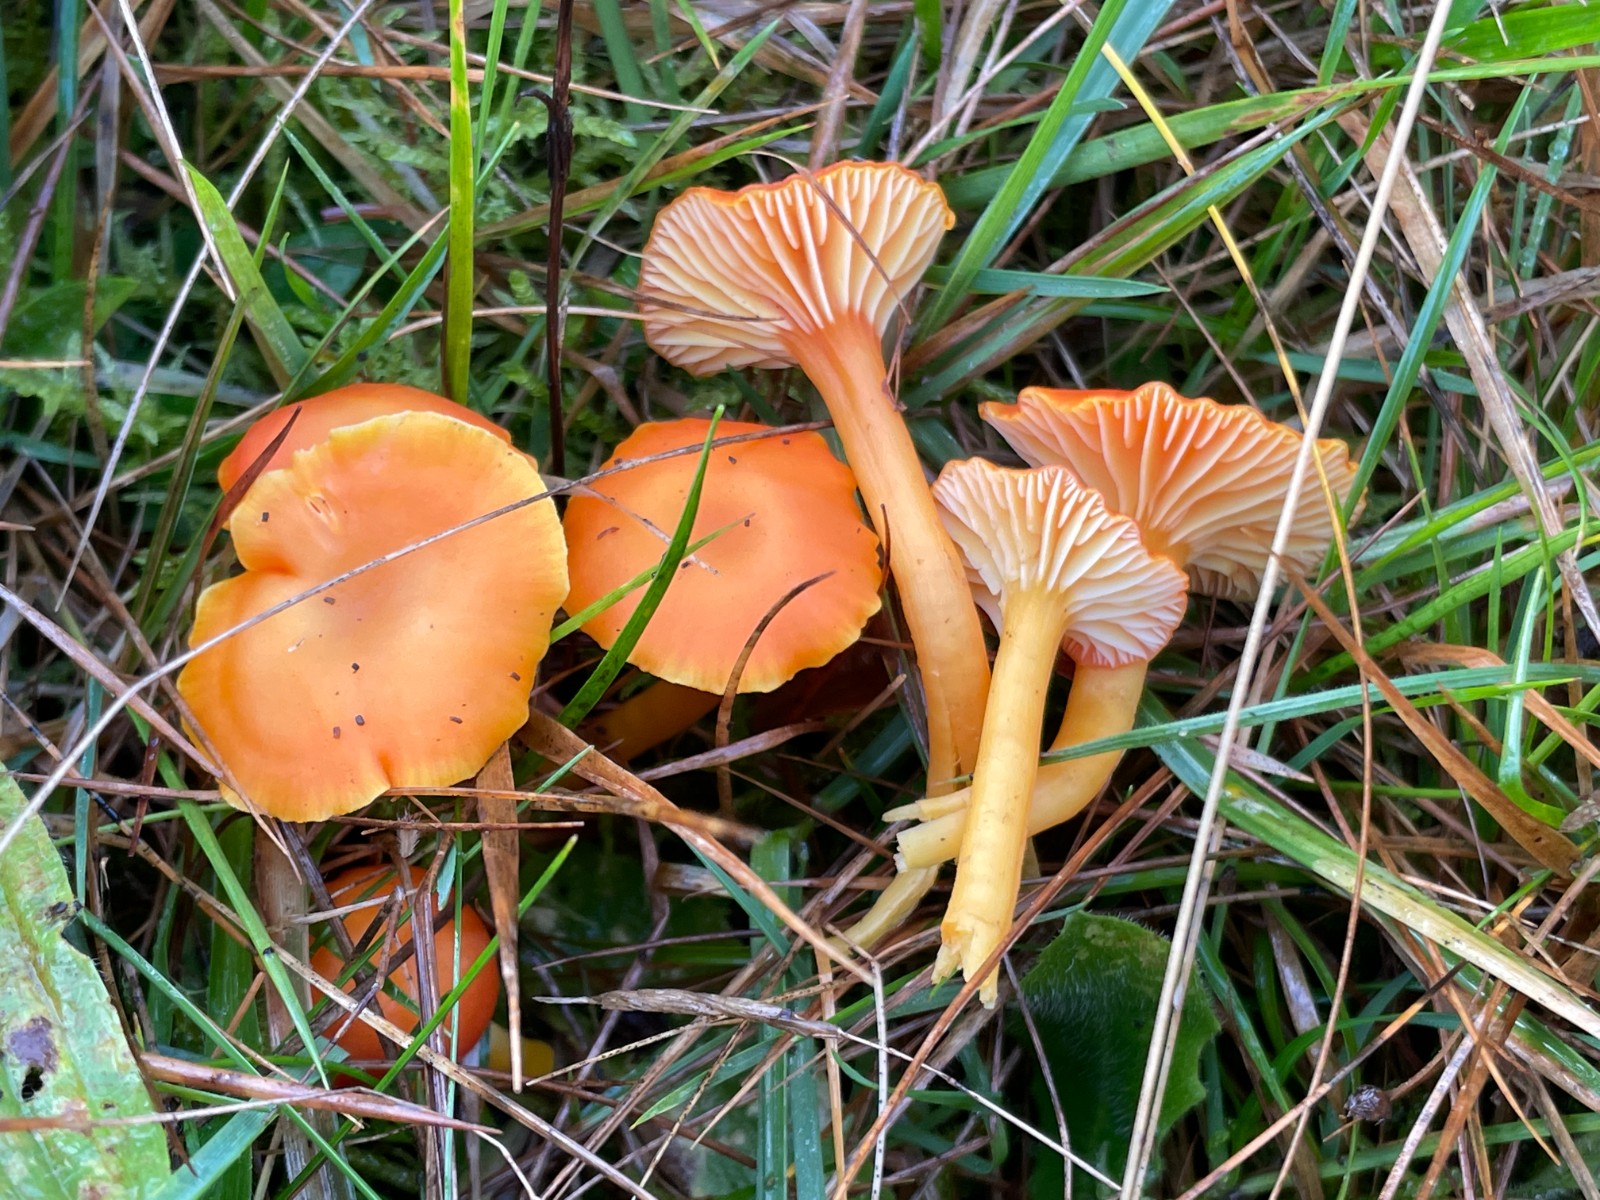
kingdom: Fungi
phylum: Basidiomycota
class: Agaricomycetes
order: Agaricales
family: Hygrophoraceae
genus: Hygrocybe
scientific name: Hygrocybe reidii
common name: honning-vokshat
